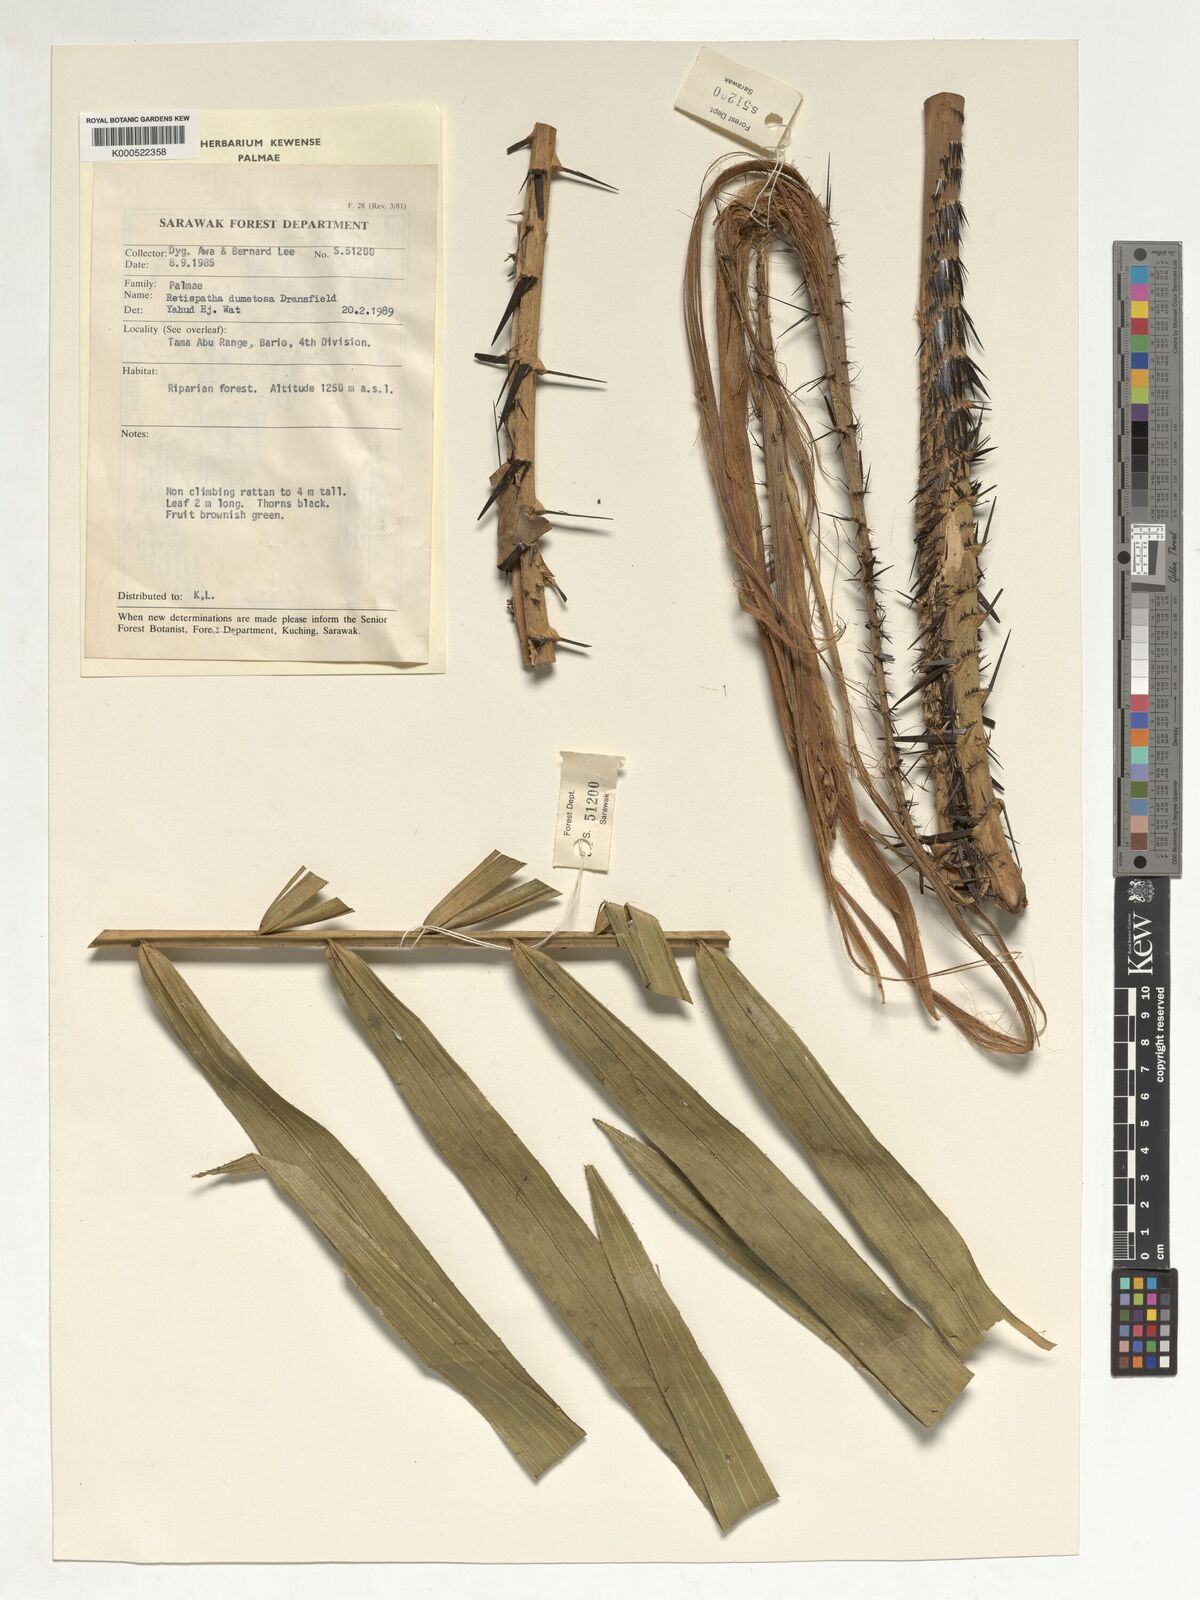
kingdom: Plantae
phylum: Tracheophyta
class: Liliopsida
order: Arecales
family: Arecaceae
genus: Calamus
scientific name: Calamus dumetosus
